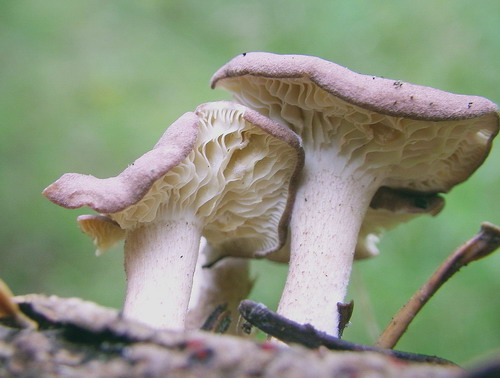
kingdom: Fungi
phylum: Basidiomycota
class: Agaricomycetes
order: Agaricales
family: Lyophyllaceae
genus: Calocybe
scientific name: Calocybe ionides
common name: violblå fagerhat
